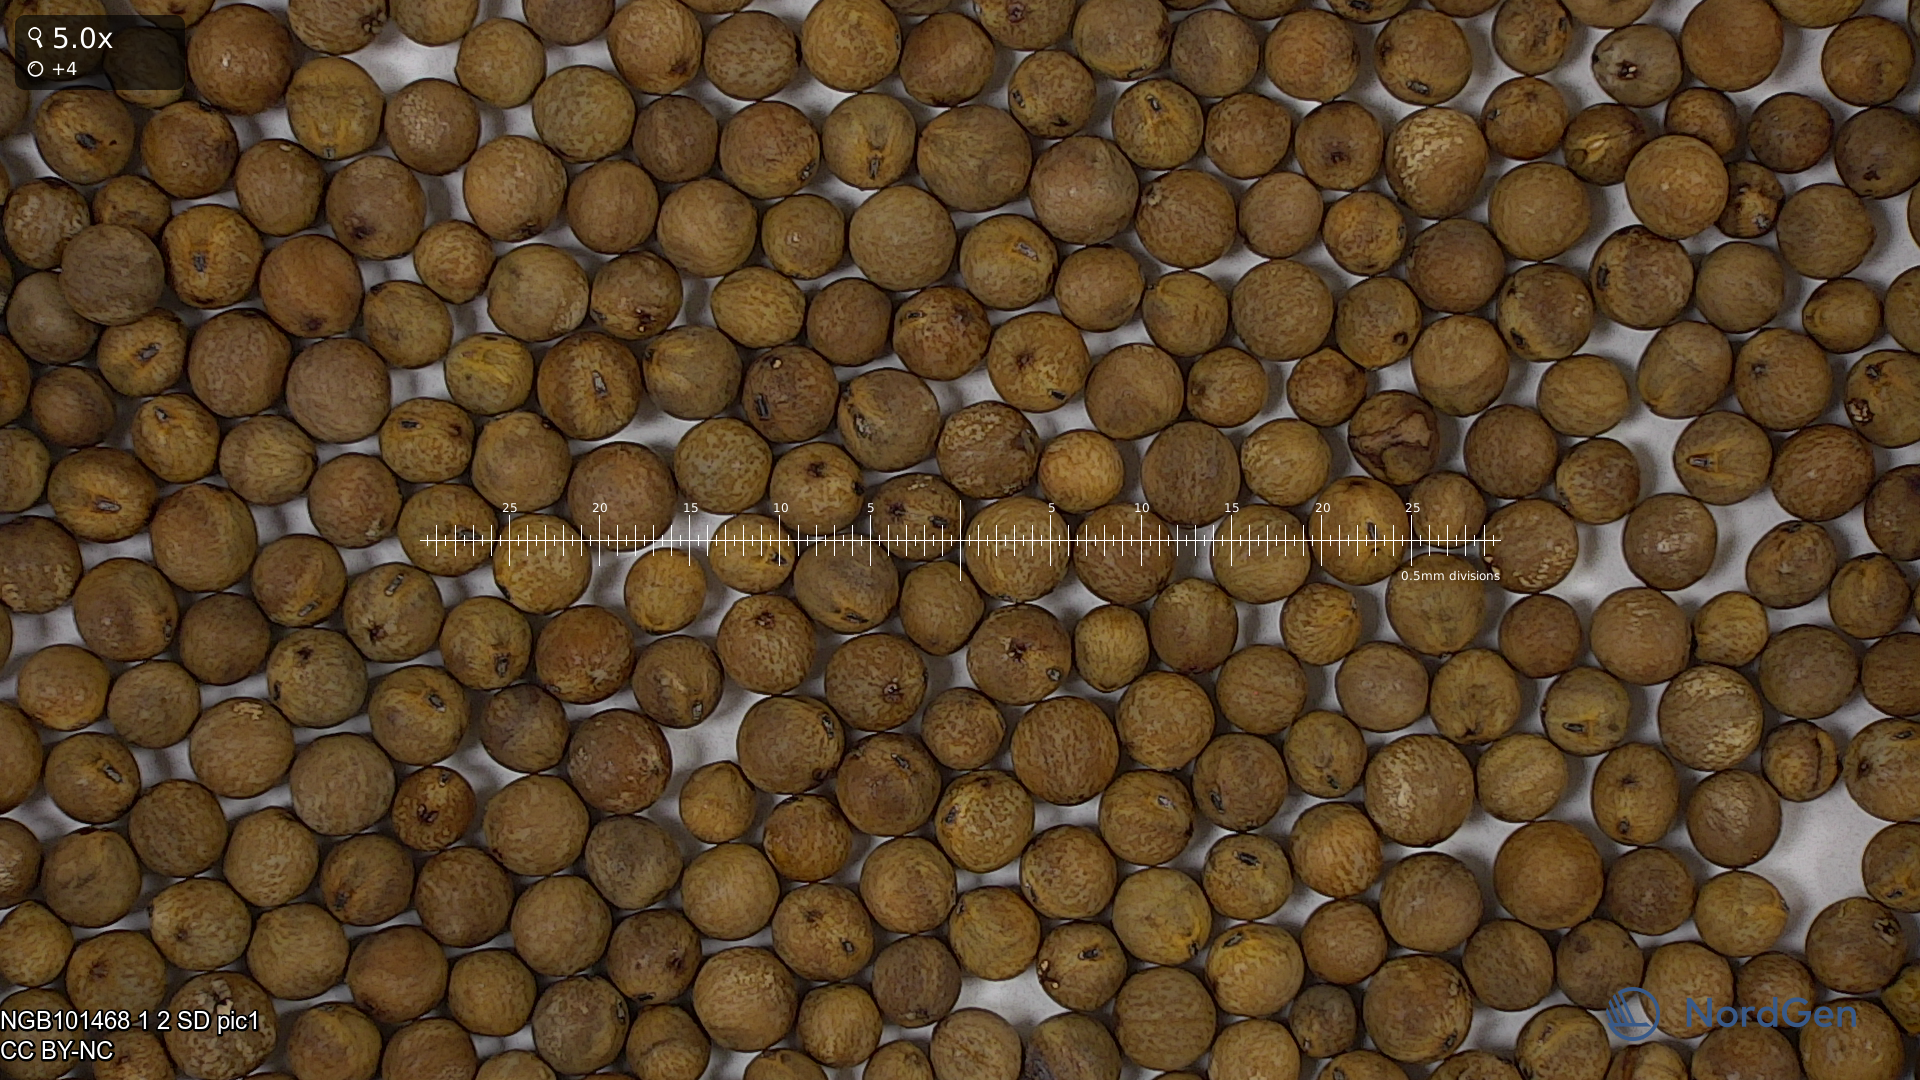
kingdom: Plantae
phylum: Tracheophyta
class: Magnoliopsida
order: Fabales
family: Fabaceae
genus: Lathyrus
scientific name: Lathyrus oleraceus
